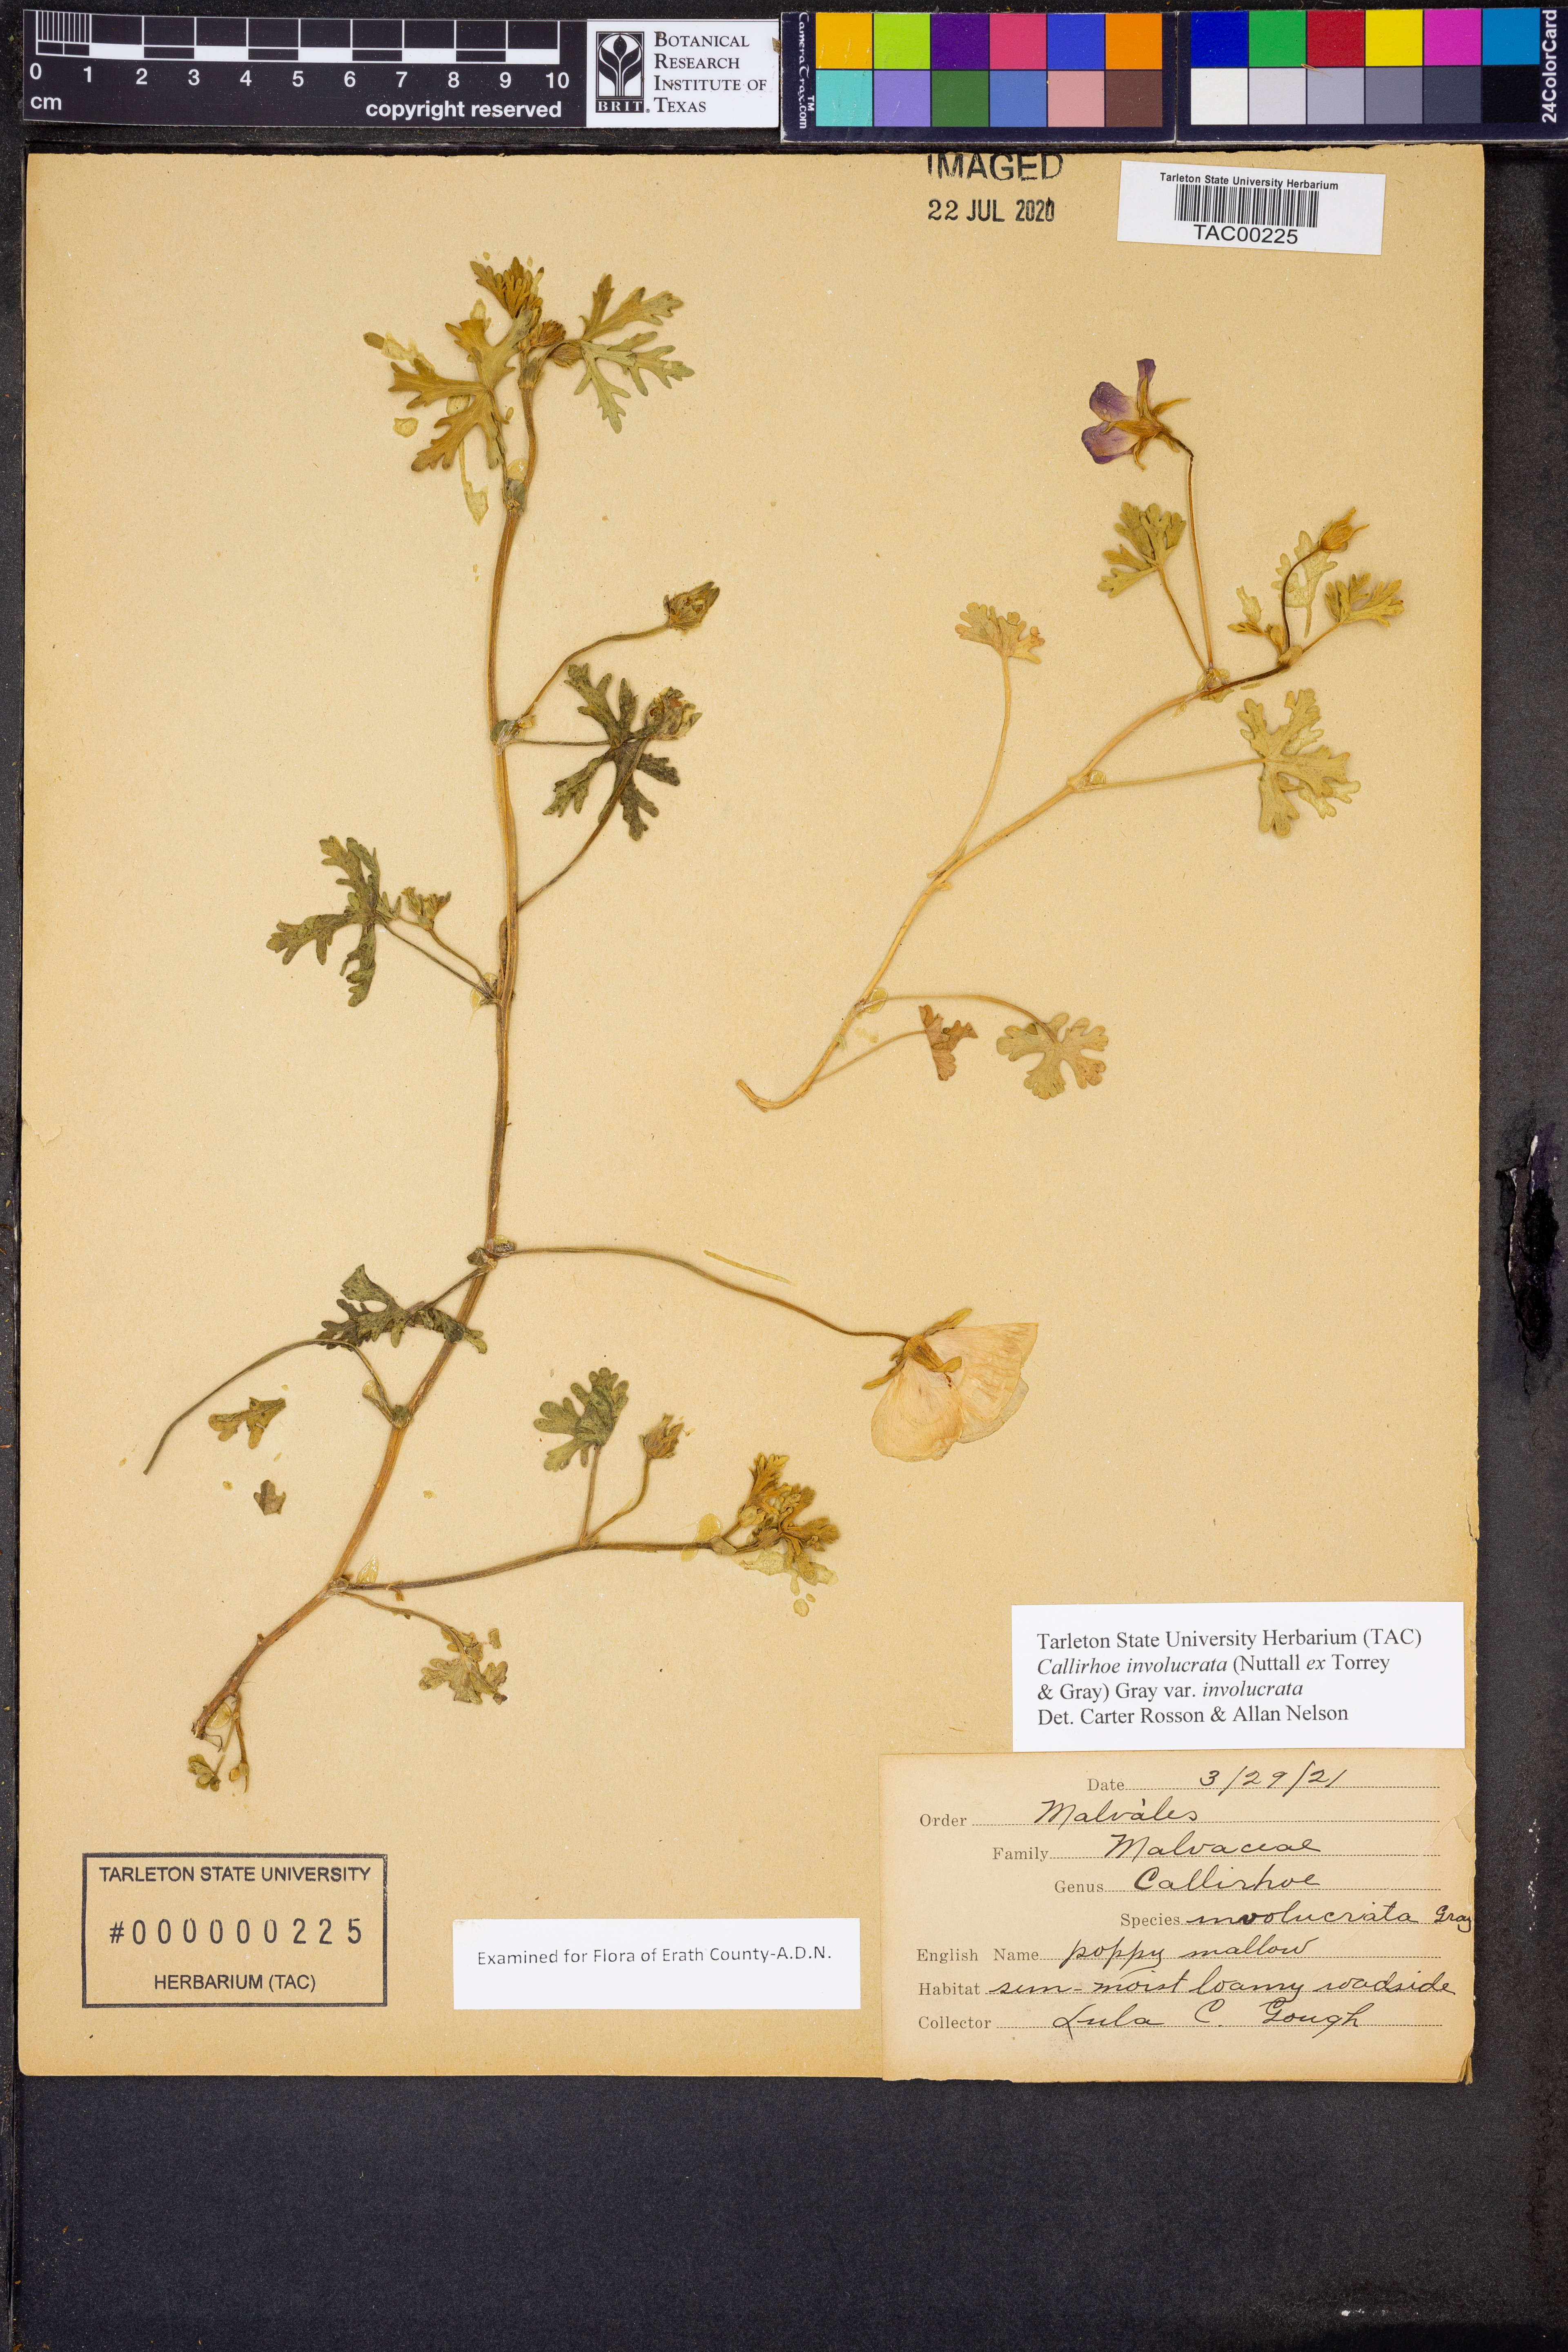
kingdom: Plantae
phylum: Tracheophyta
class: Magnoliopsida
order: Malvales
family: Malvaceae
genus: Callirhoe
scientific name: Callirhoe involucrata
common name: Purple poppy-mallow
